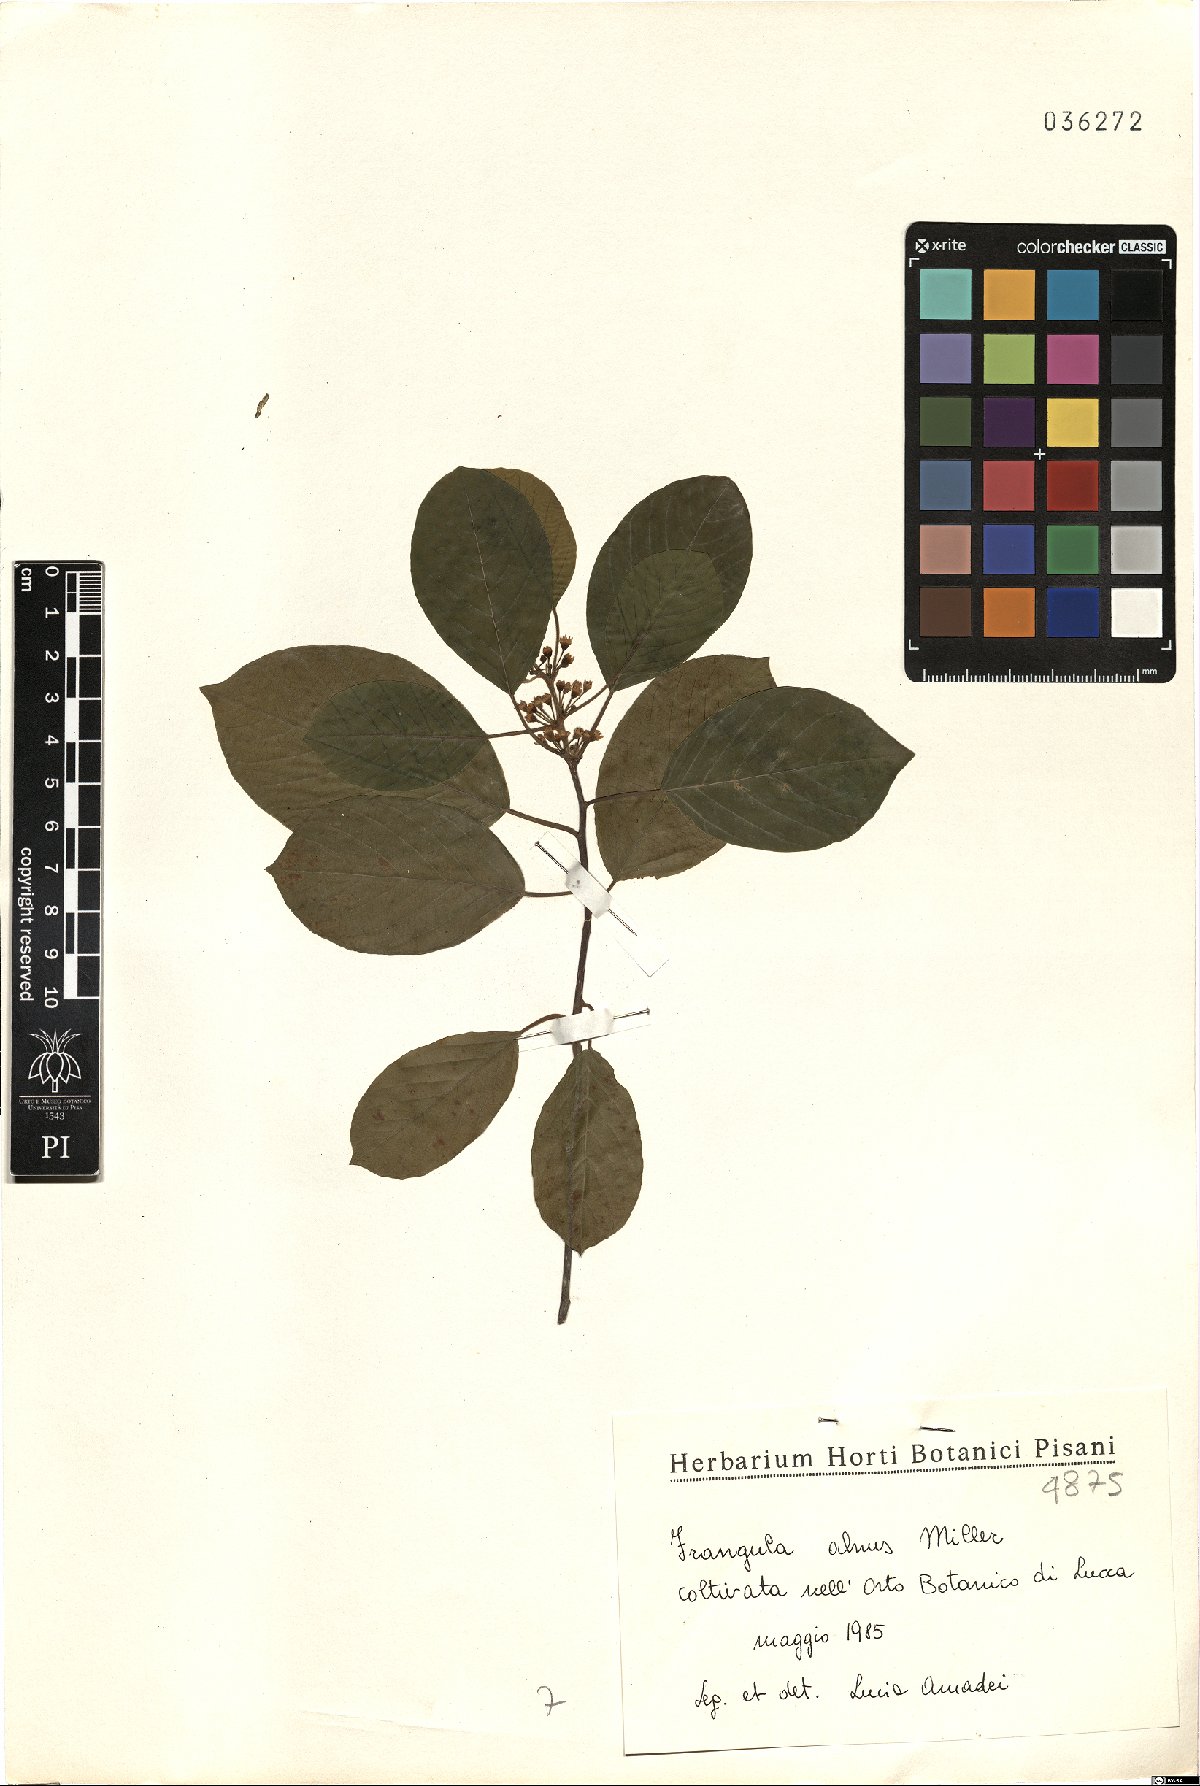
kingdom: Plantae
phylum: Tracheophyta
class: Magnoliopsida
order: Rosales
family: Rhamnaceae
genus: Frangula
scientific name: Frangula alnus
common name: Alder buckthorn
